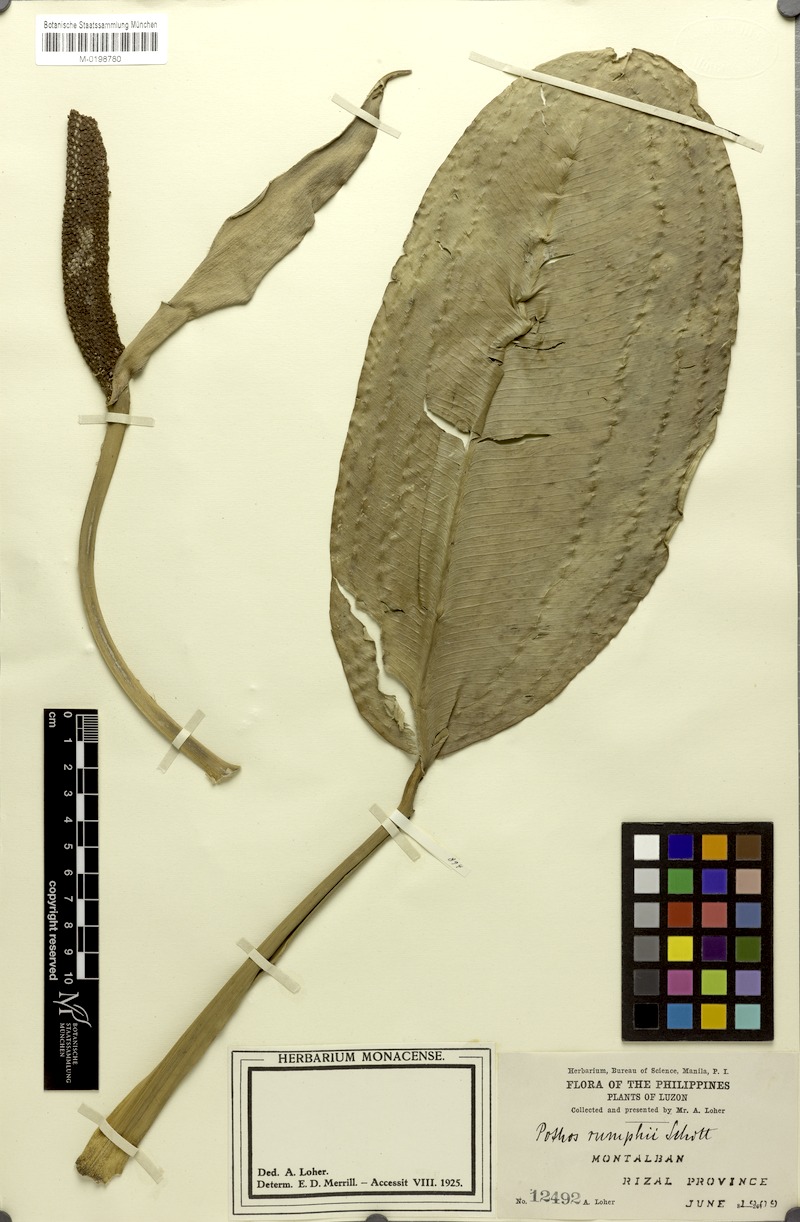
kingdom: Plantae
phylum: Tracheophyta
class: Liliopsida
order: Alismatales
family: Araceae
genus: Pothos
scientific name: Pothos tener
